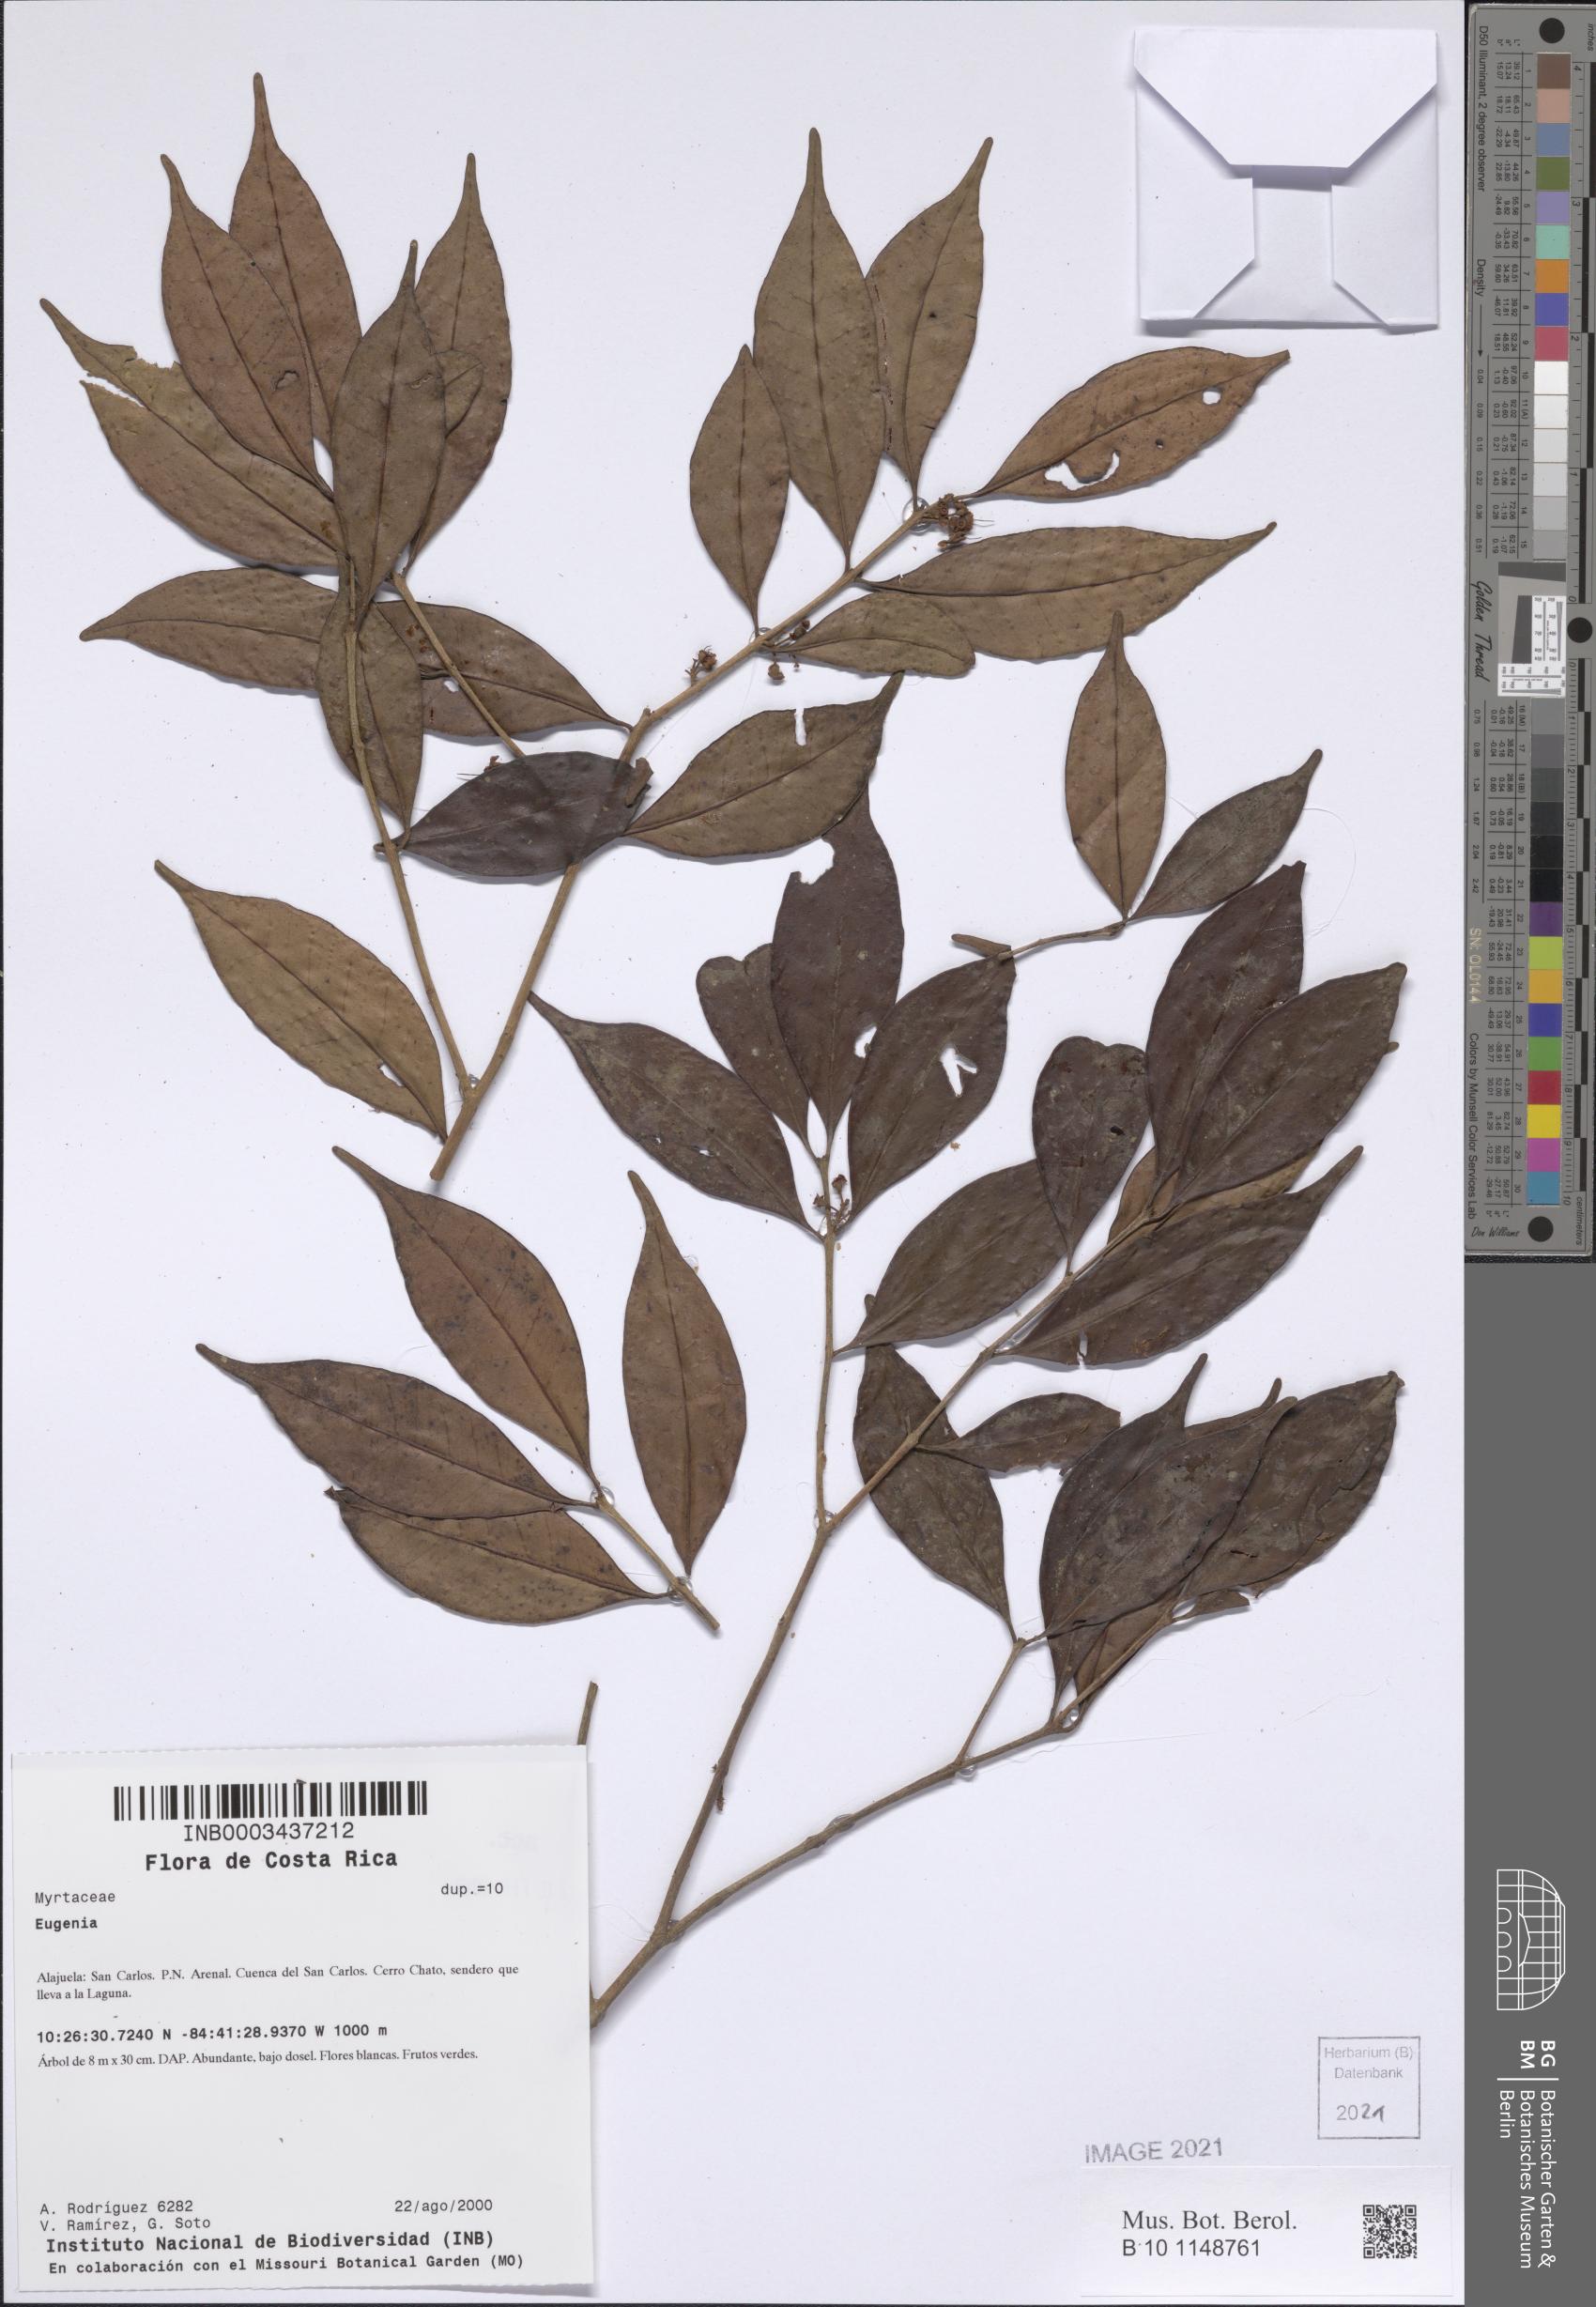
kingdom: Plantae
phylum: Tracheophyta
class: Magnoliopsida
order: Myrtales
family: Myrtaceae
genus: Eugenia
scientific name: Eugenia
